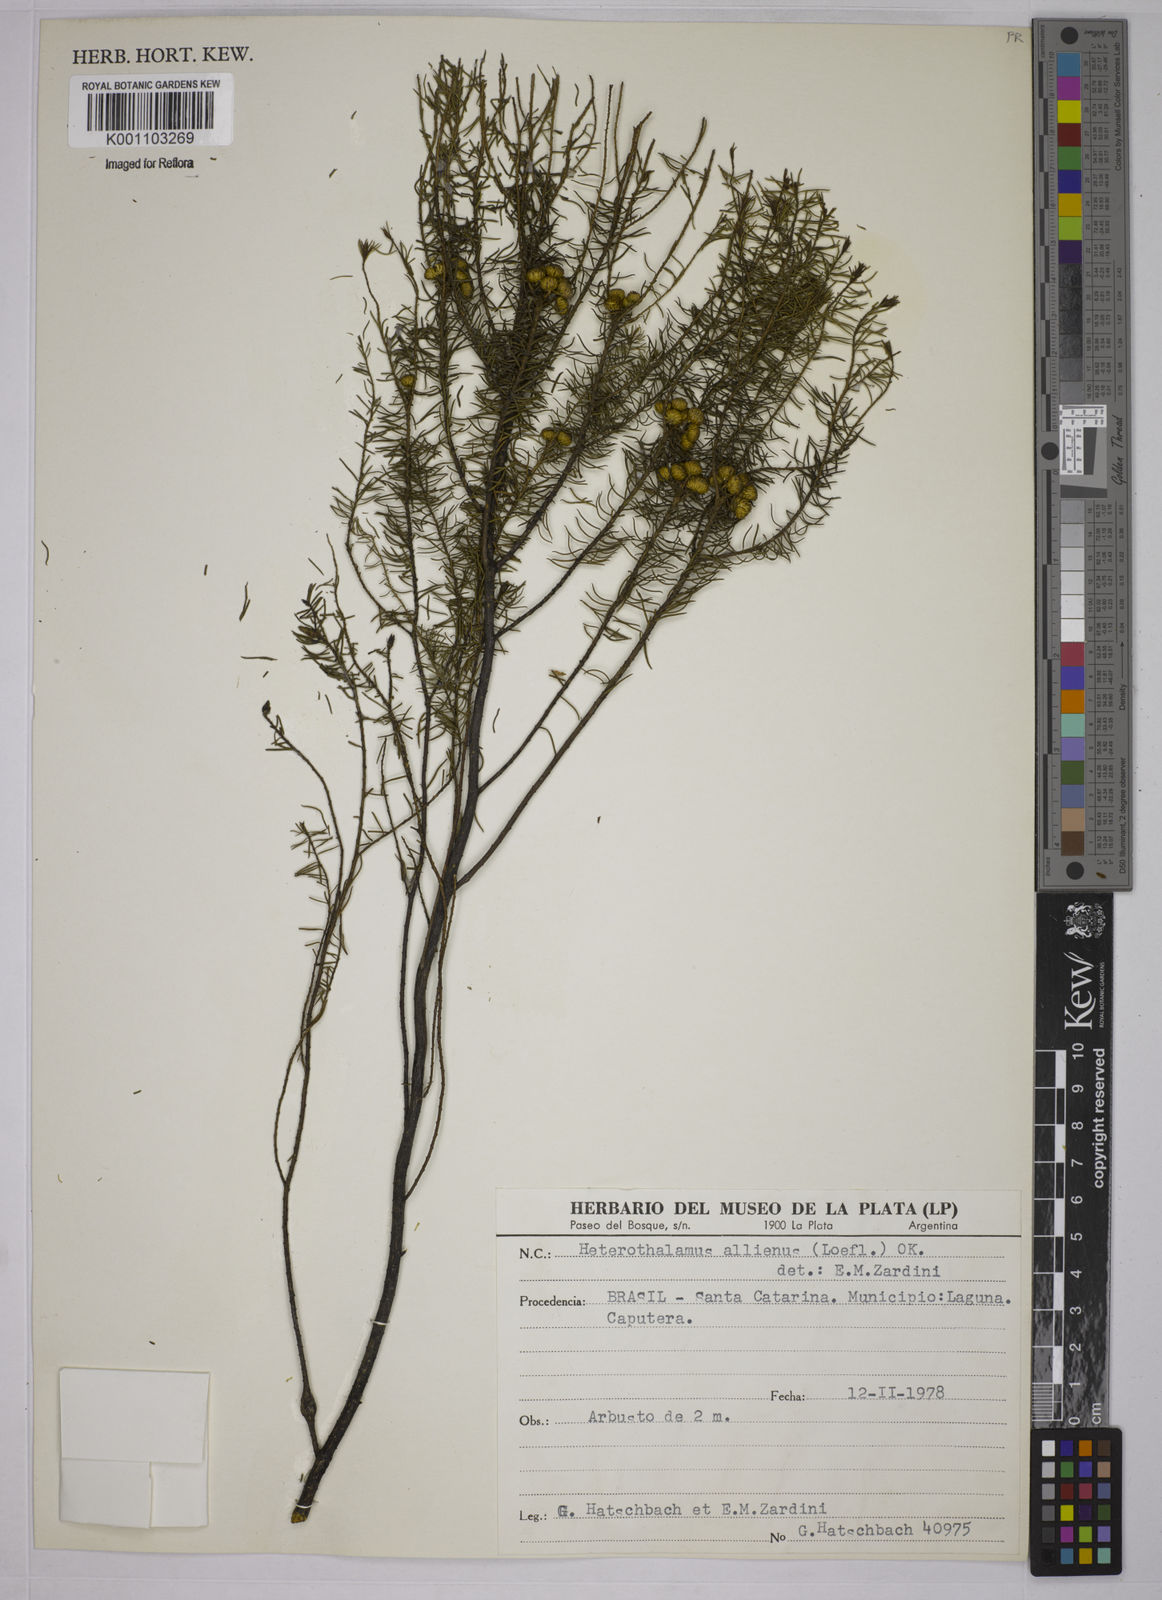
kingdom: Plantae
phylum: Tracheophyta
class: Magnoliopsida
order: Asterales
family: Asteraceae
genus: Baccharis
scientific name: Baccharis aliena
